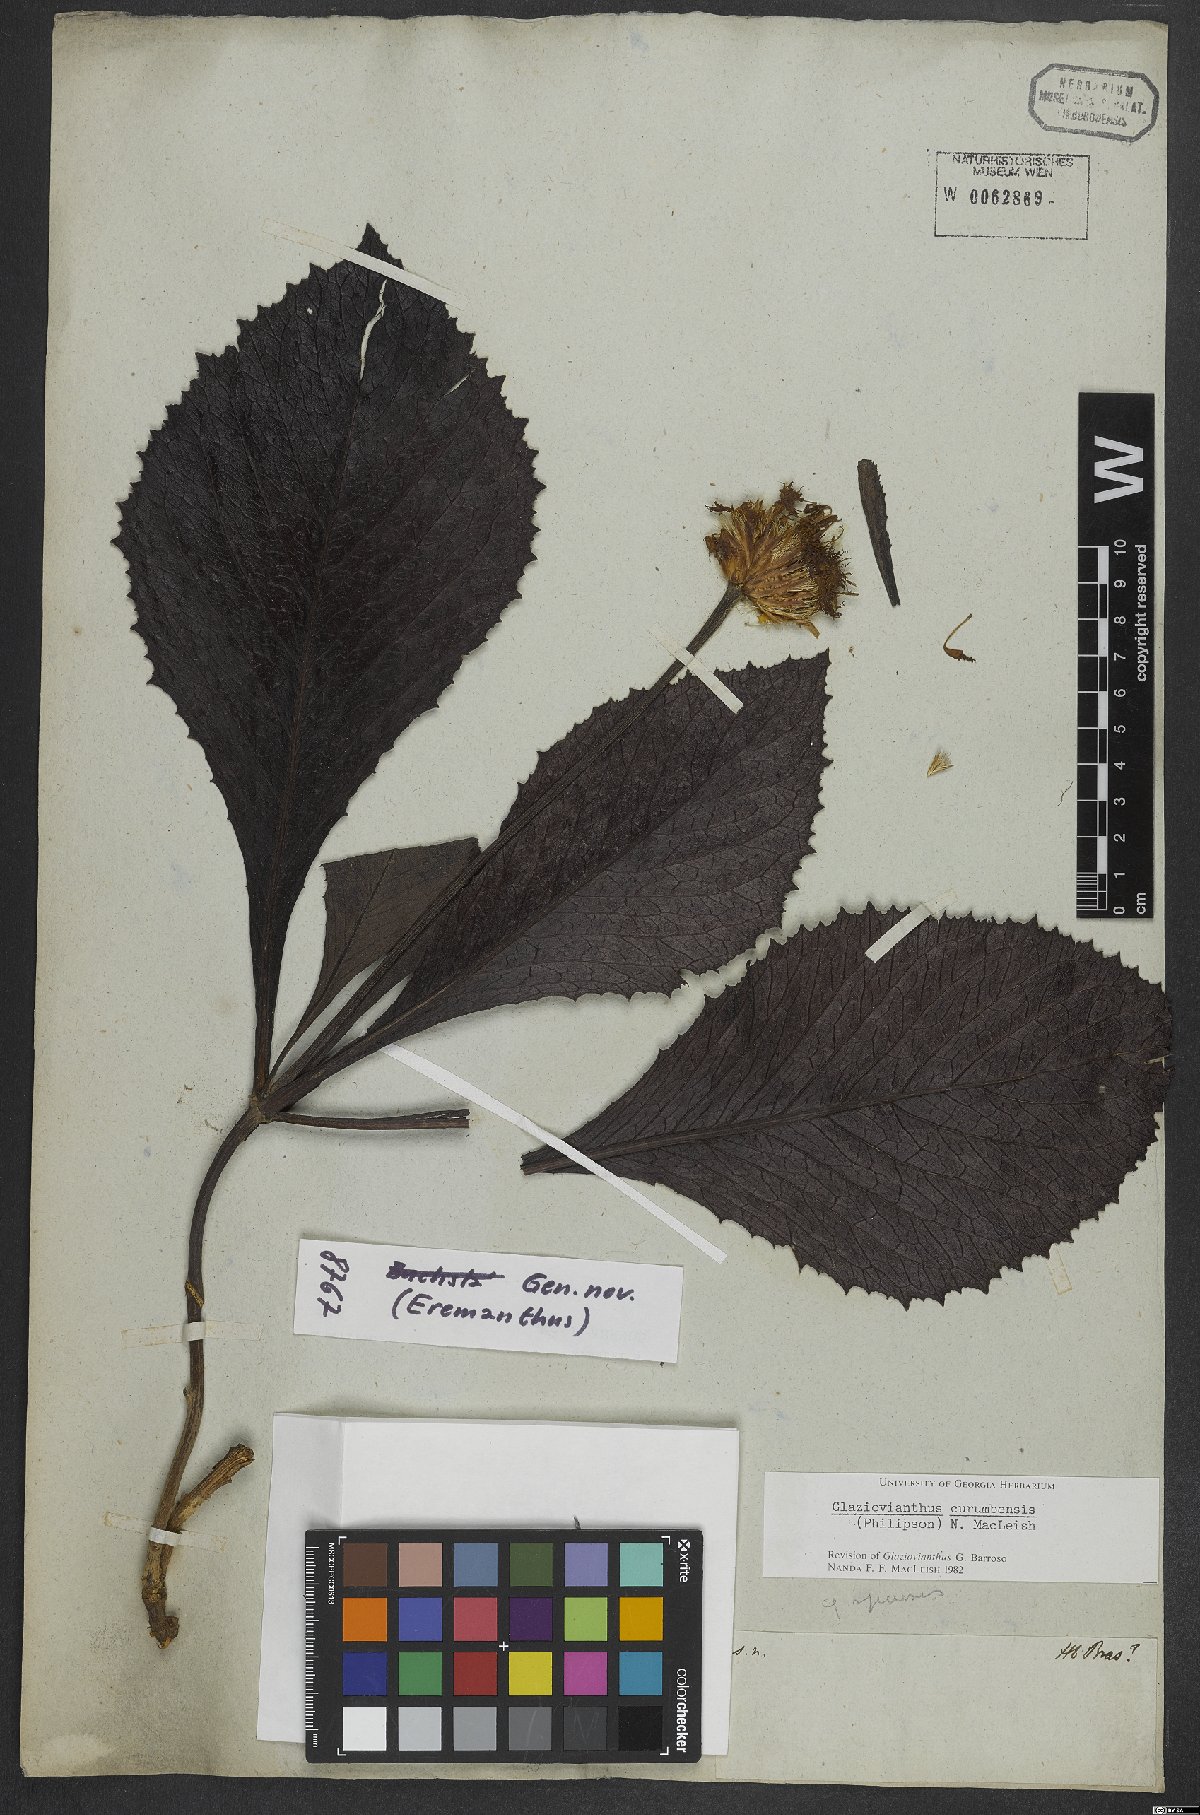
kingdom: Plantae
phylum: Tracheophyta
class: Magnoliopsida
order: Asterales
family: Asteraceae
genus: Chresta
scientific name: Chresta curumbensis
